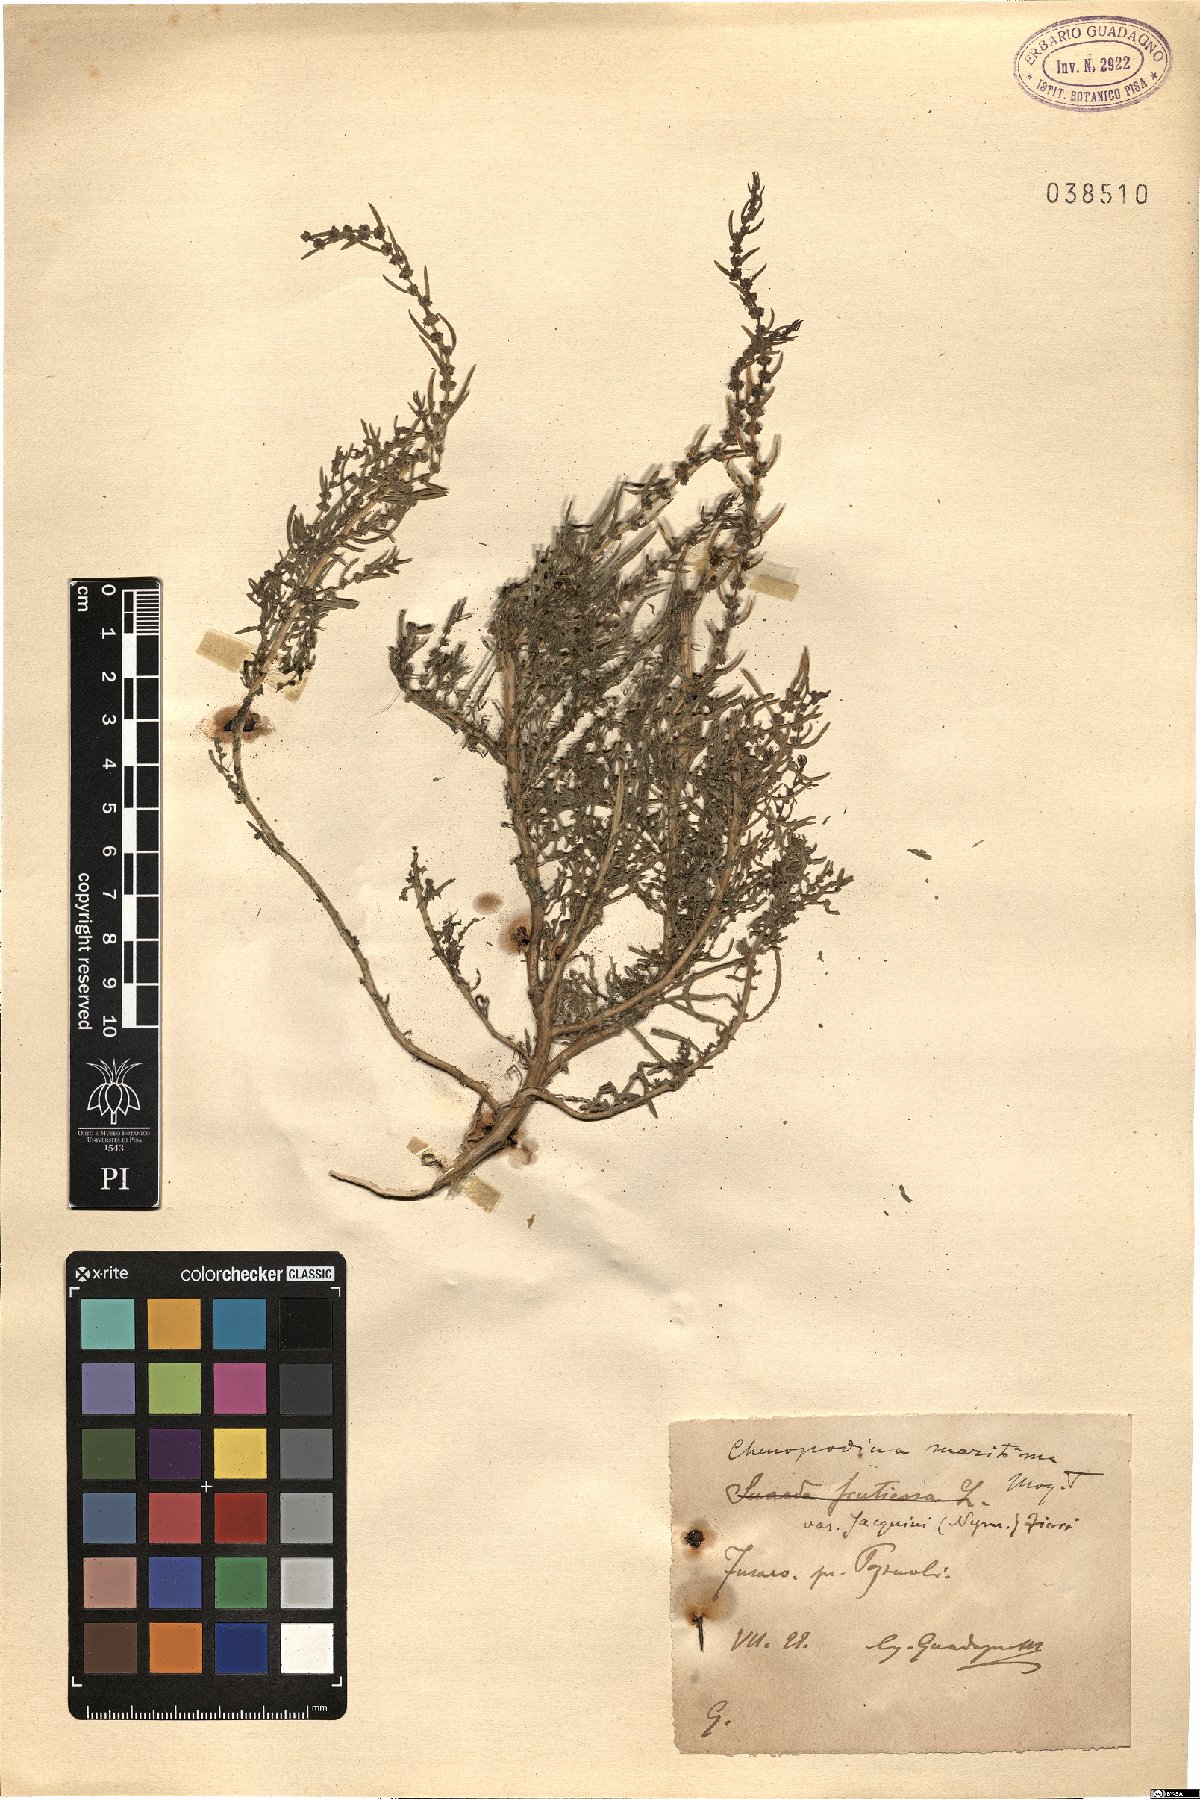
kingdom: Plantae
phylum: Tracheophyta
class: Magnoliopsida
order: Caryophyllales
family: Amaranthaceae
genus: Suaeda
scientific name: Suaeda maritima
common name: Annual sea-blite
